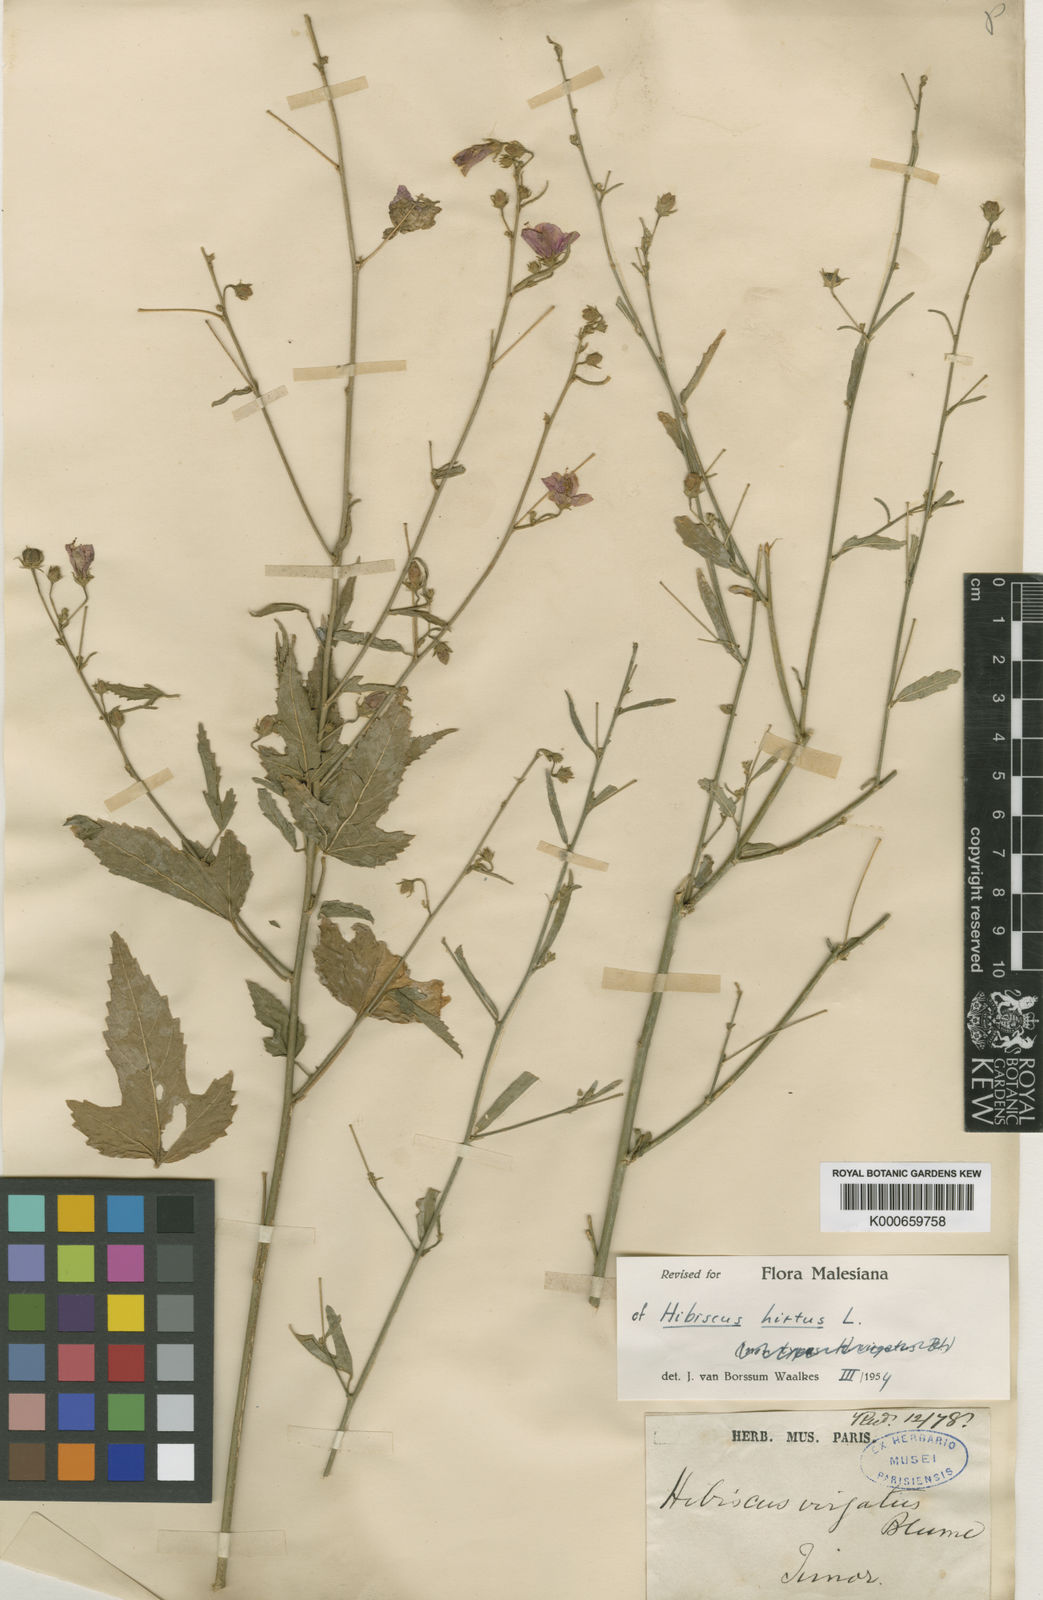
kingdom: Plantae
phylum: Tracheophyta
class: Magnoliopsida
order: Malvales
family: Malvaceae
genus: Hibiscus
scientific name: Hibiscus hirtus
